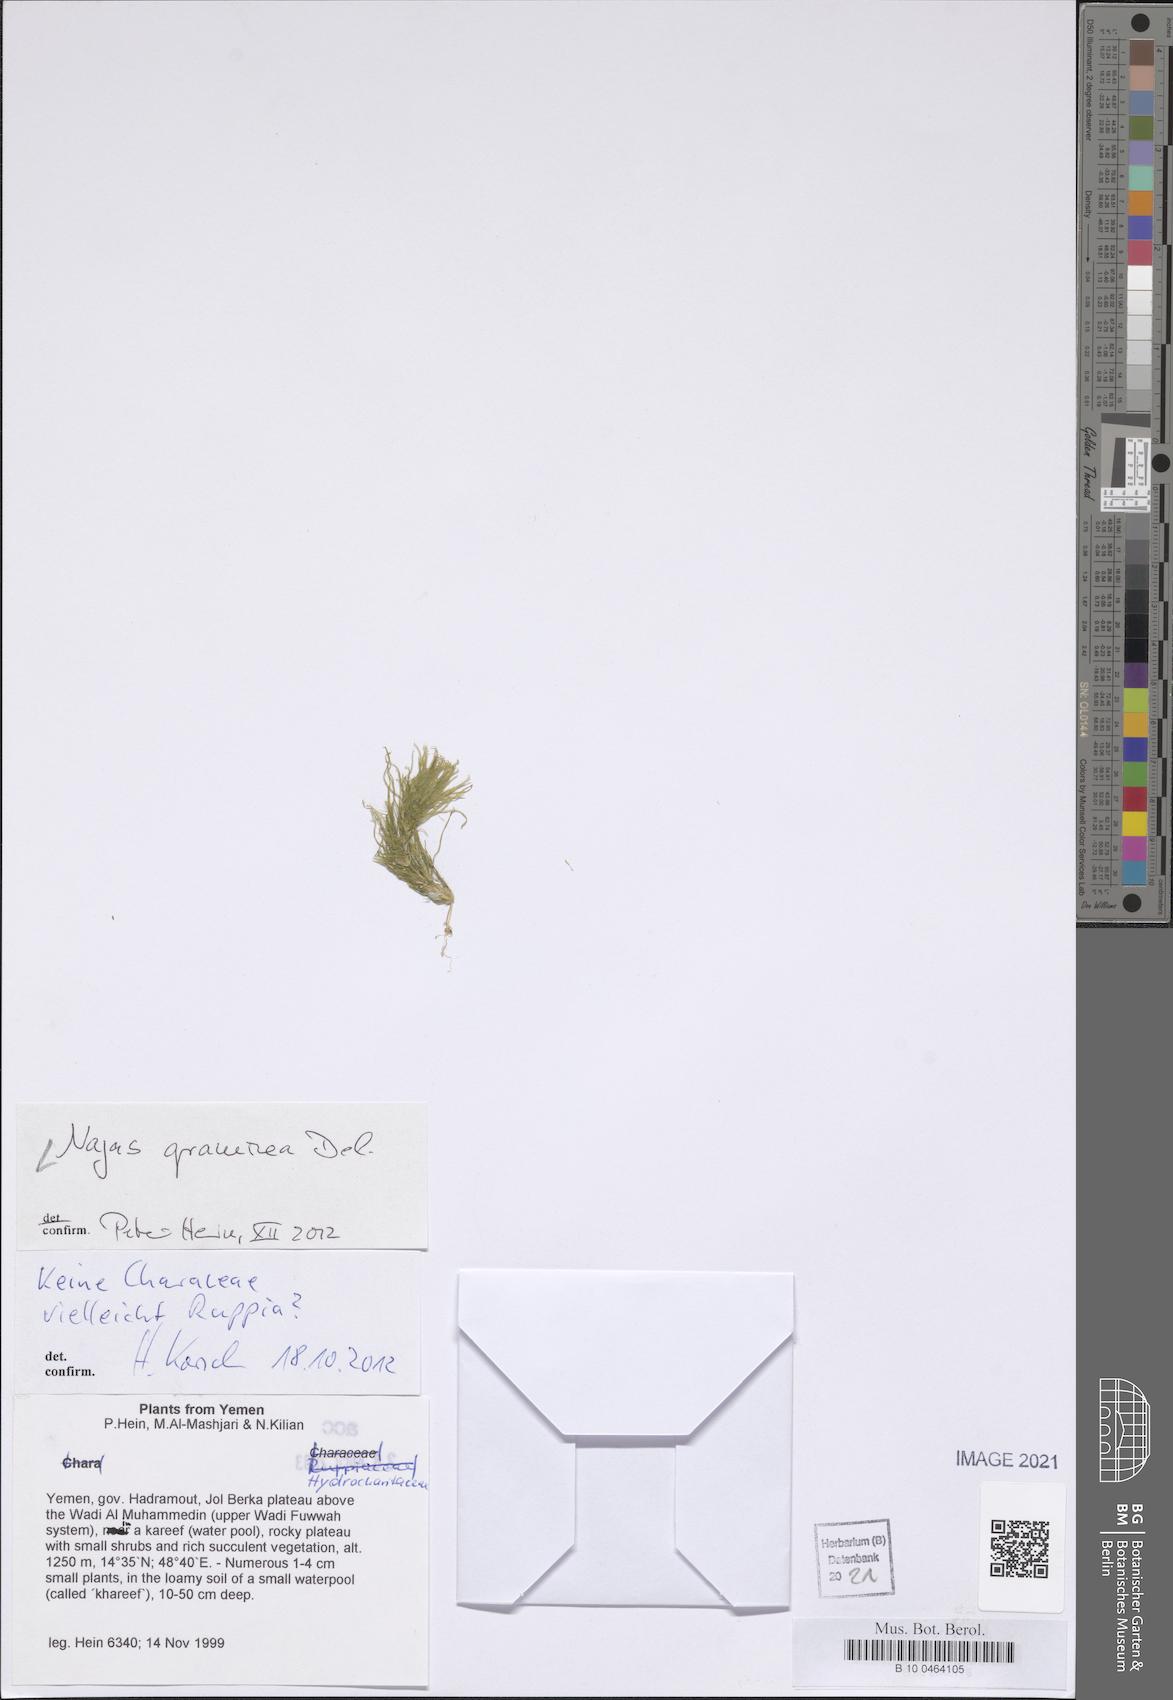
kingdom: Plantae
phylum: Tracheophyta
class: Liliopsida
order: Alismatales
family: Hydrocharitaceae
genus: Najas
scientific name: Najas graminea
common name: Ricefield waternymph
